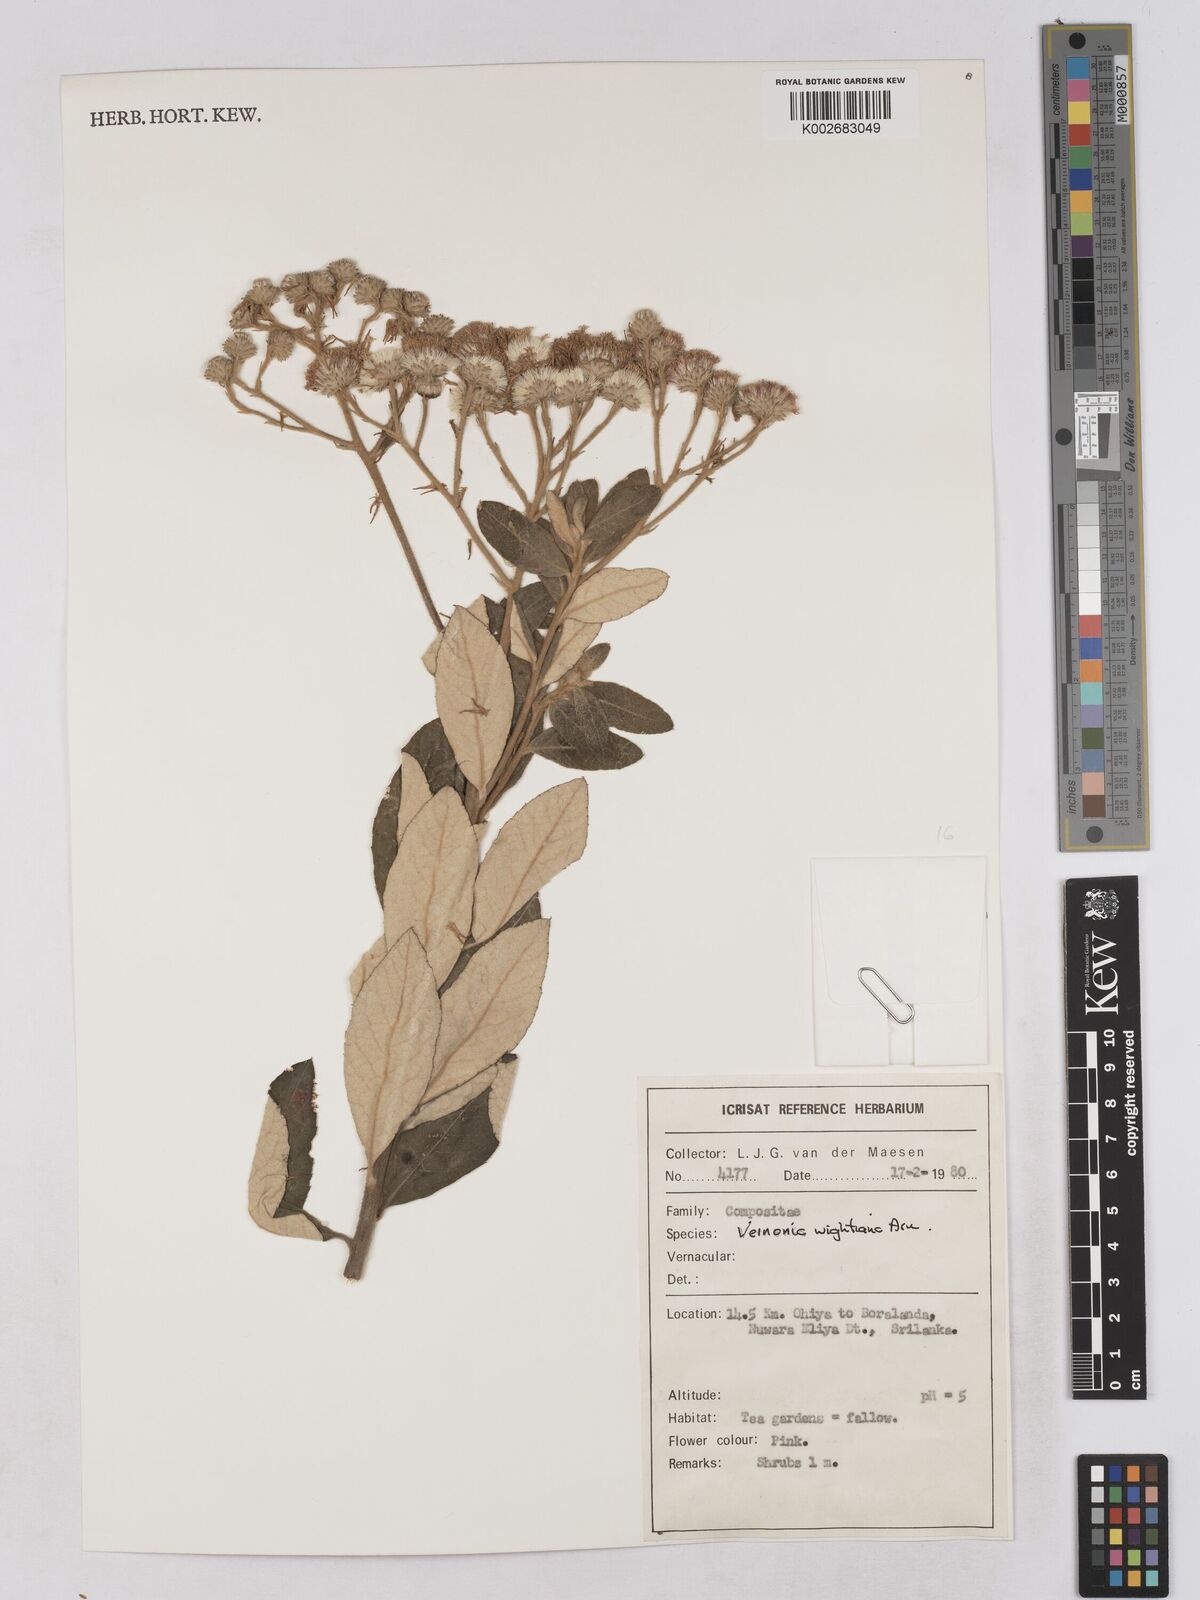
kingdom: Plantae
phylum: Tracheophyta
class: Magnoliopsida
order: Asterales
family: Asteraceae
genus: Uniyala
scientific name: Uniyala wightiana
